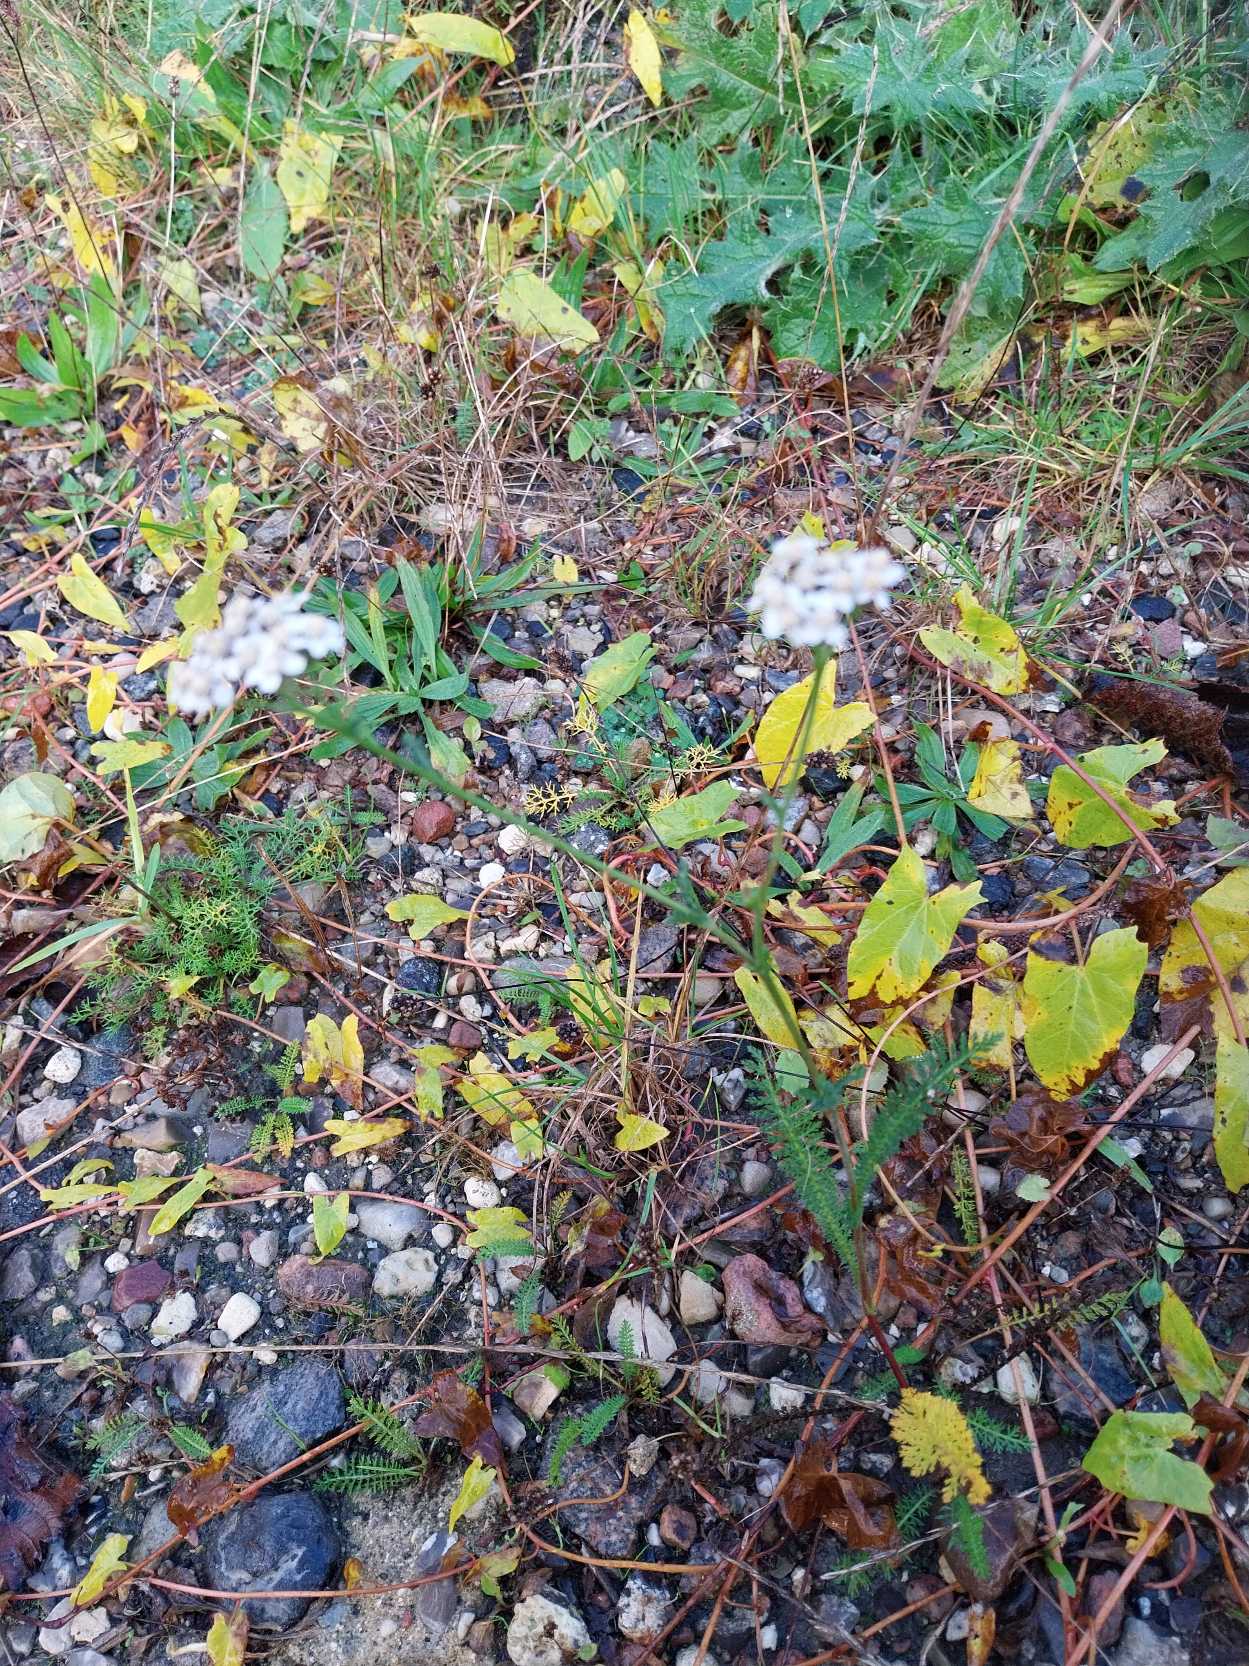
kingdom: Plantae
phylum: Tracheophyta
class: Magnoliopsida
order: Asterales
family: Asteraceae
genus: Achillea
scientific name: Achillea millefolium
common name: Almindelig røllike
